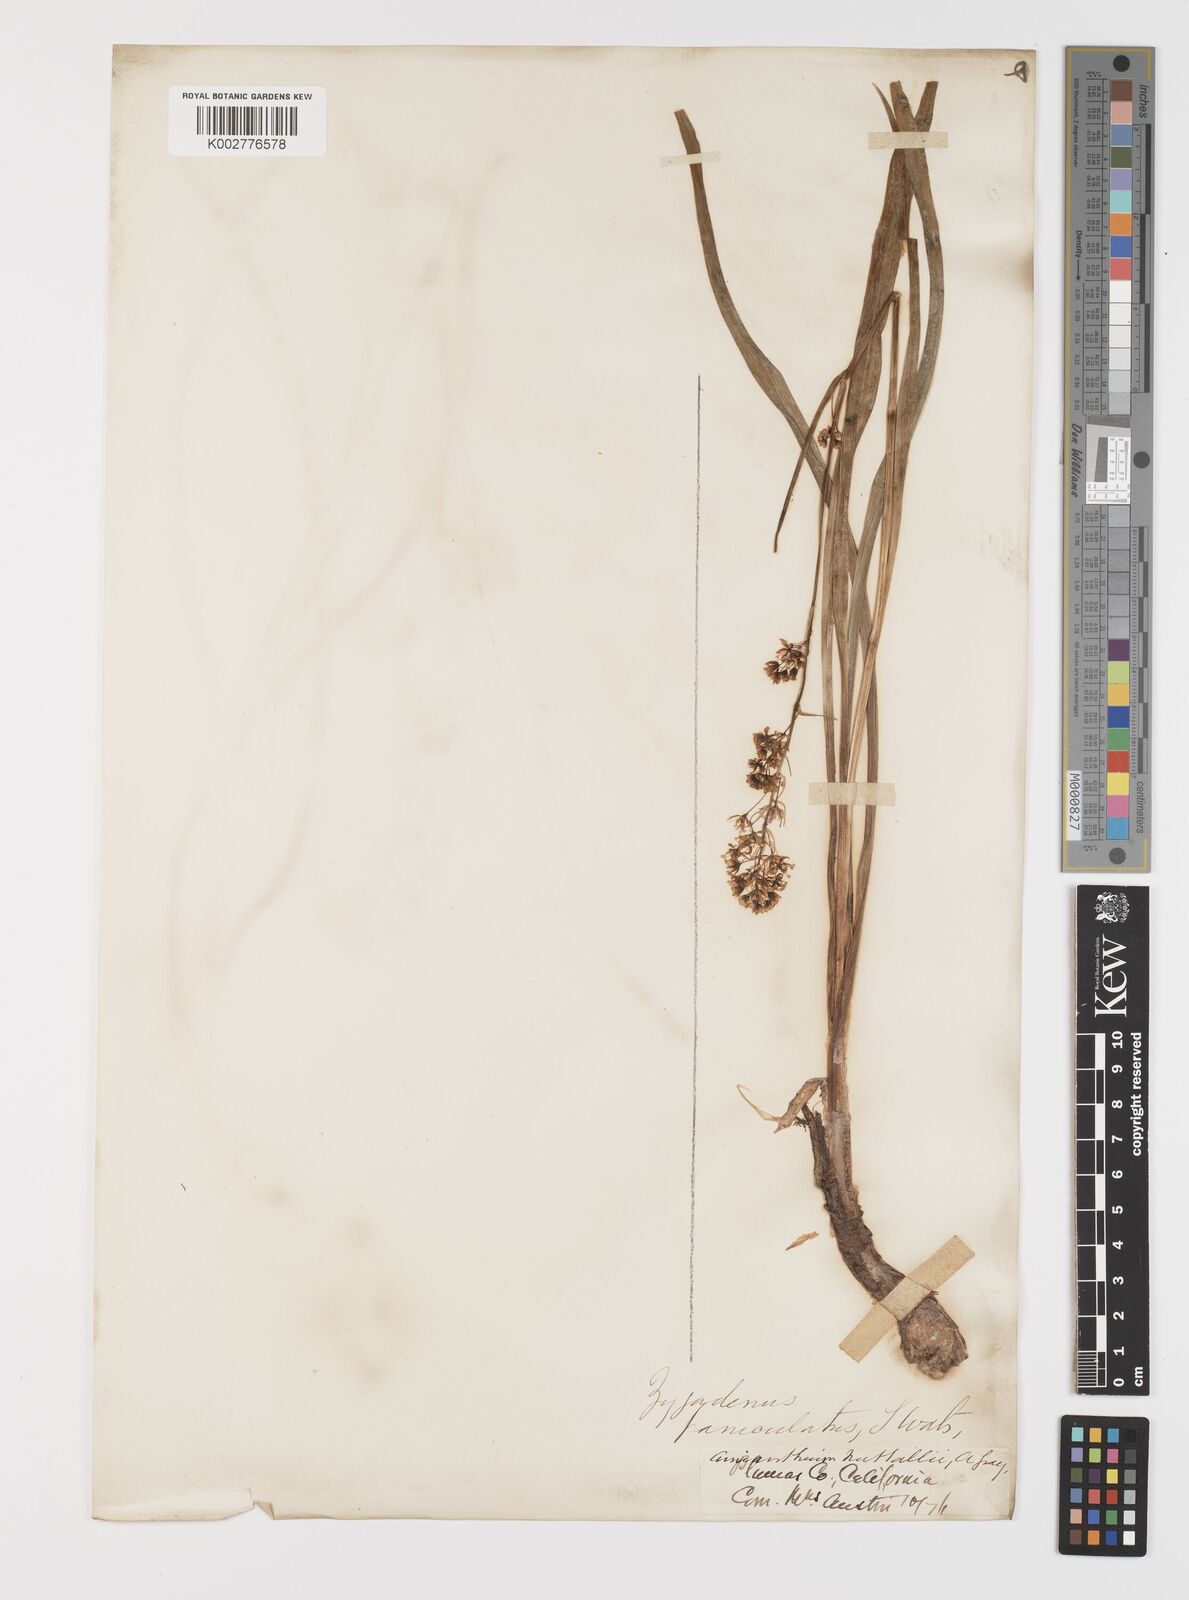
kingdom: Plantae
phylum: Tracheophyta
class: Liliopsida
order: Liliales
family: Melanthiaceae
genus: Toxicoscordion
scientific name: Toxicoscordion paniculatum
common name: Foothill death camas
